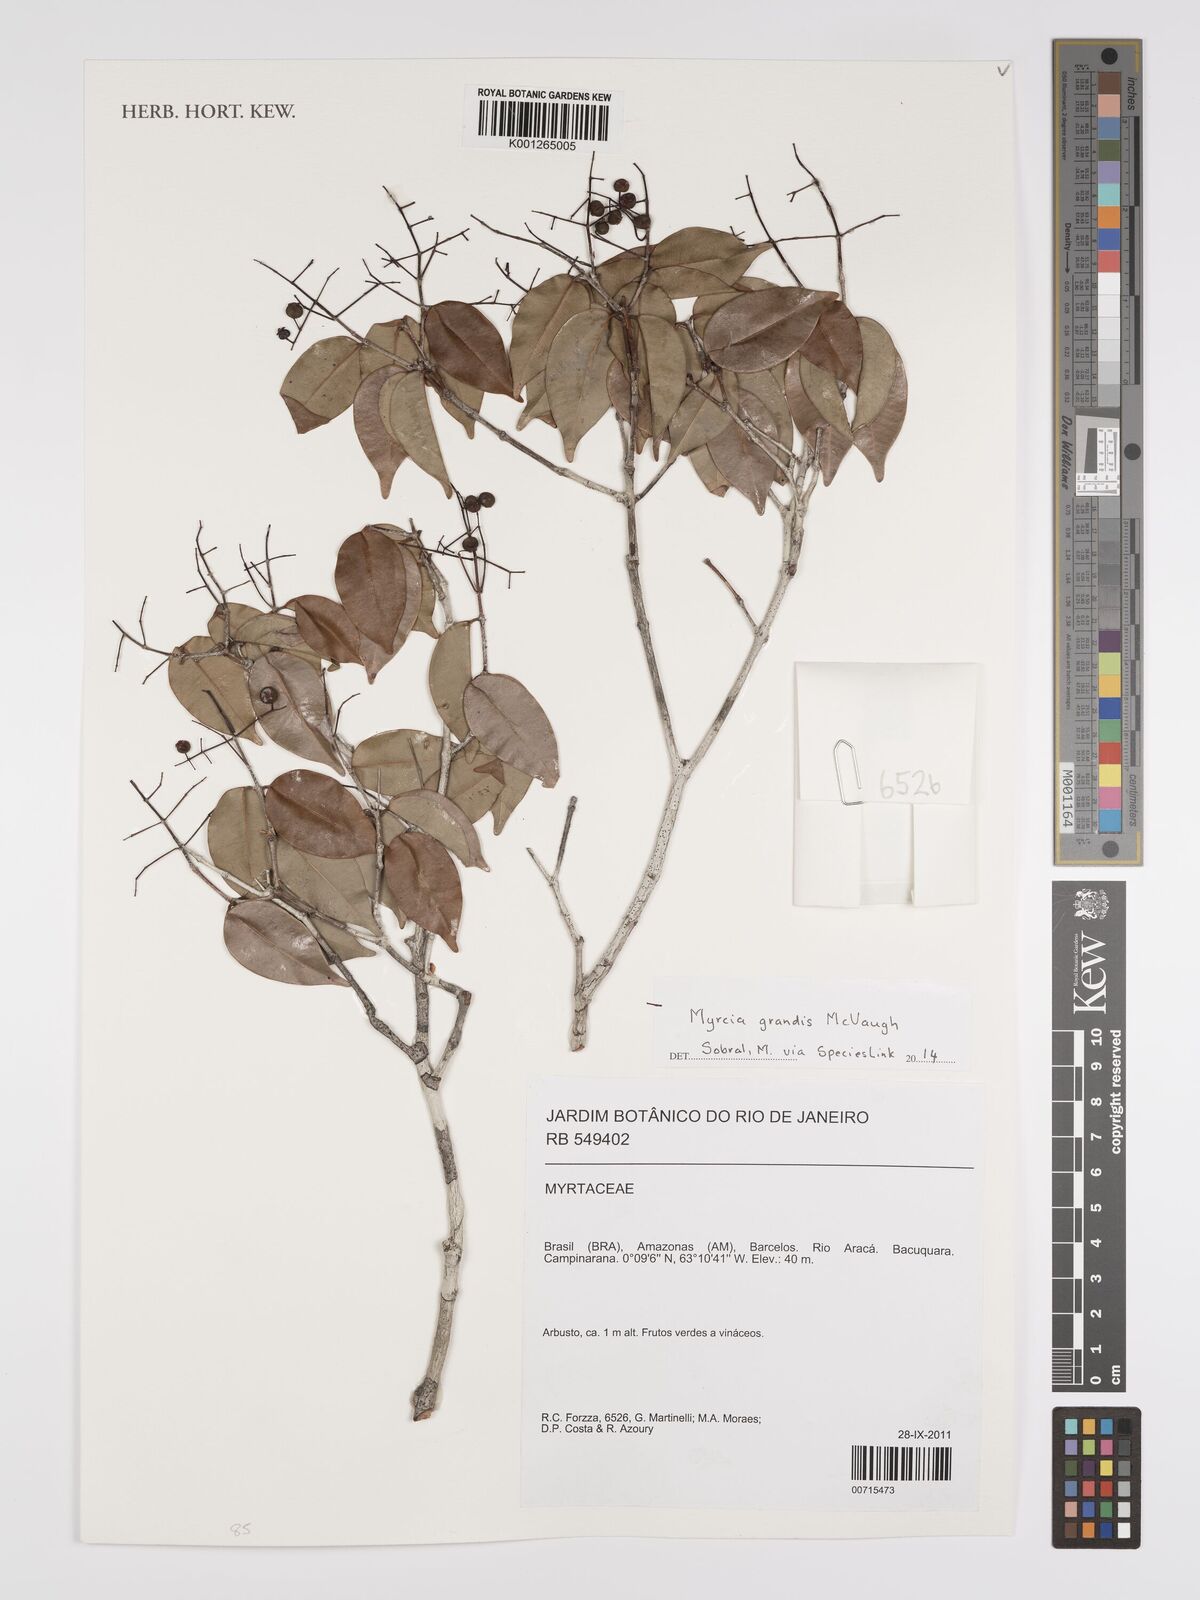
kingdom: Plantae
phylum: Tracheophyta
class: Magnoliopsida
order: Myrtales
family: Myrtaceae
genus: Myrcia
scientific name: Myrcia grandis
